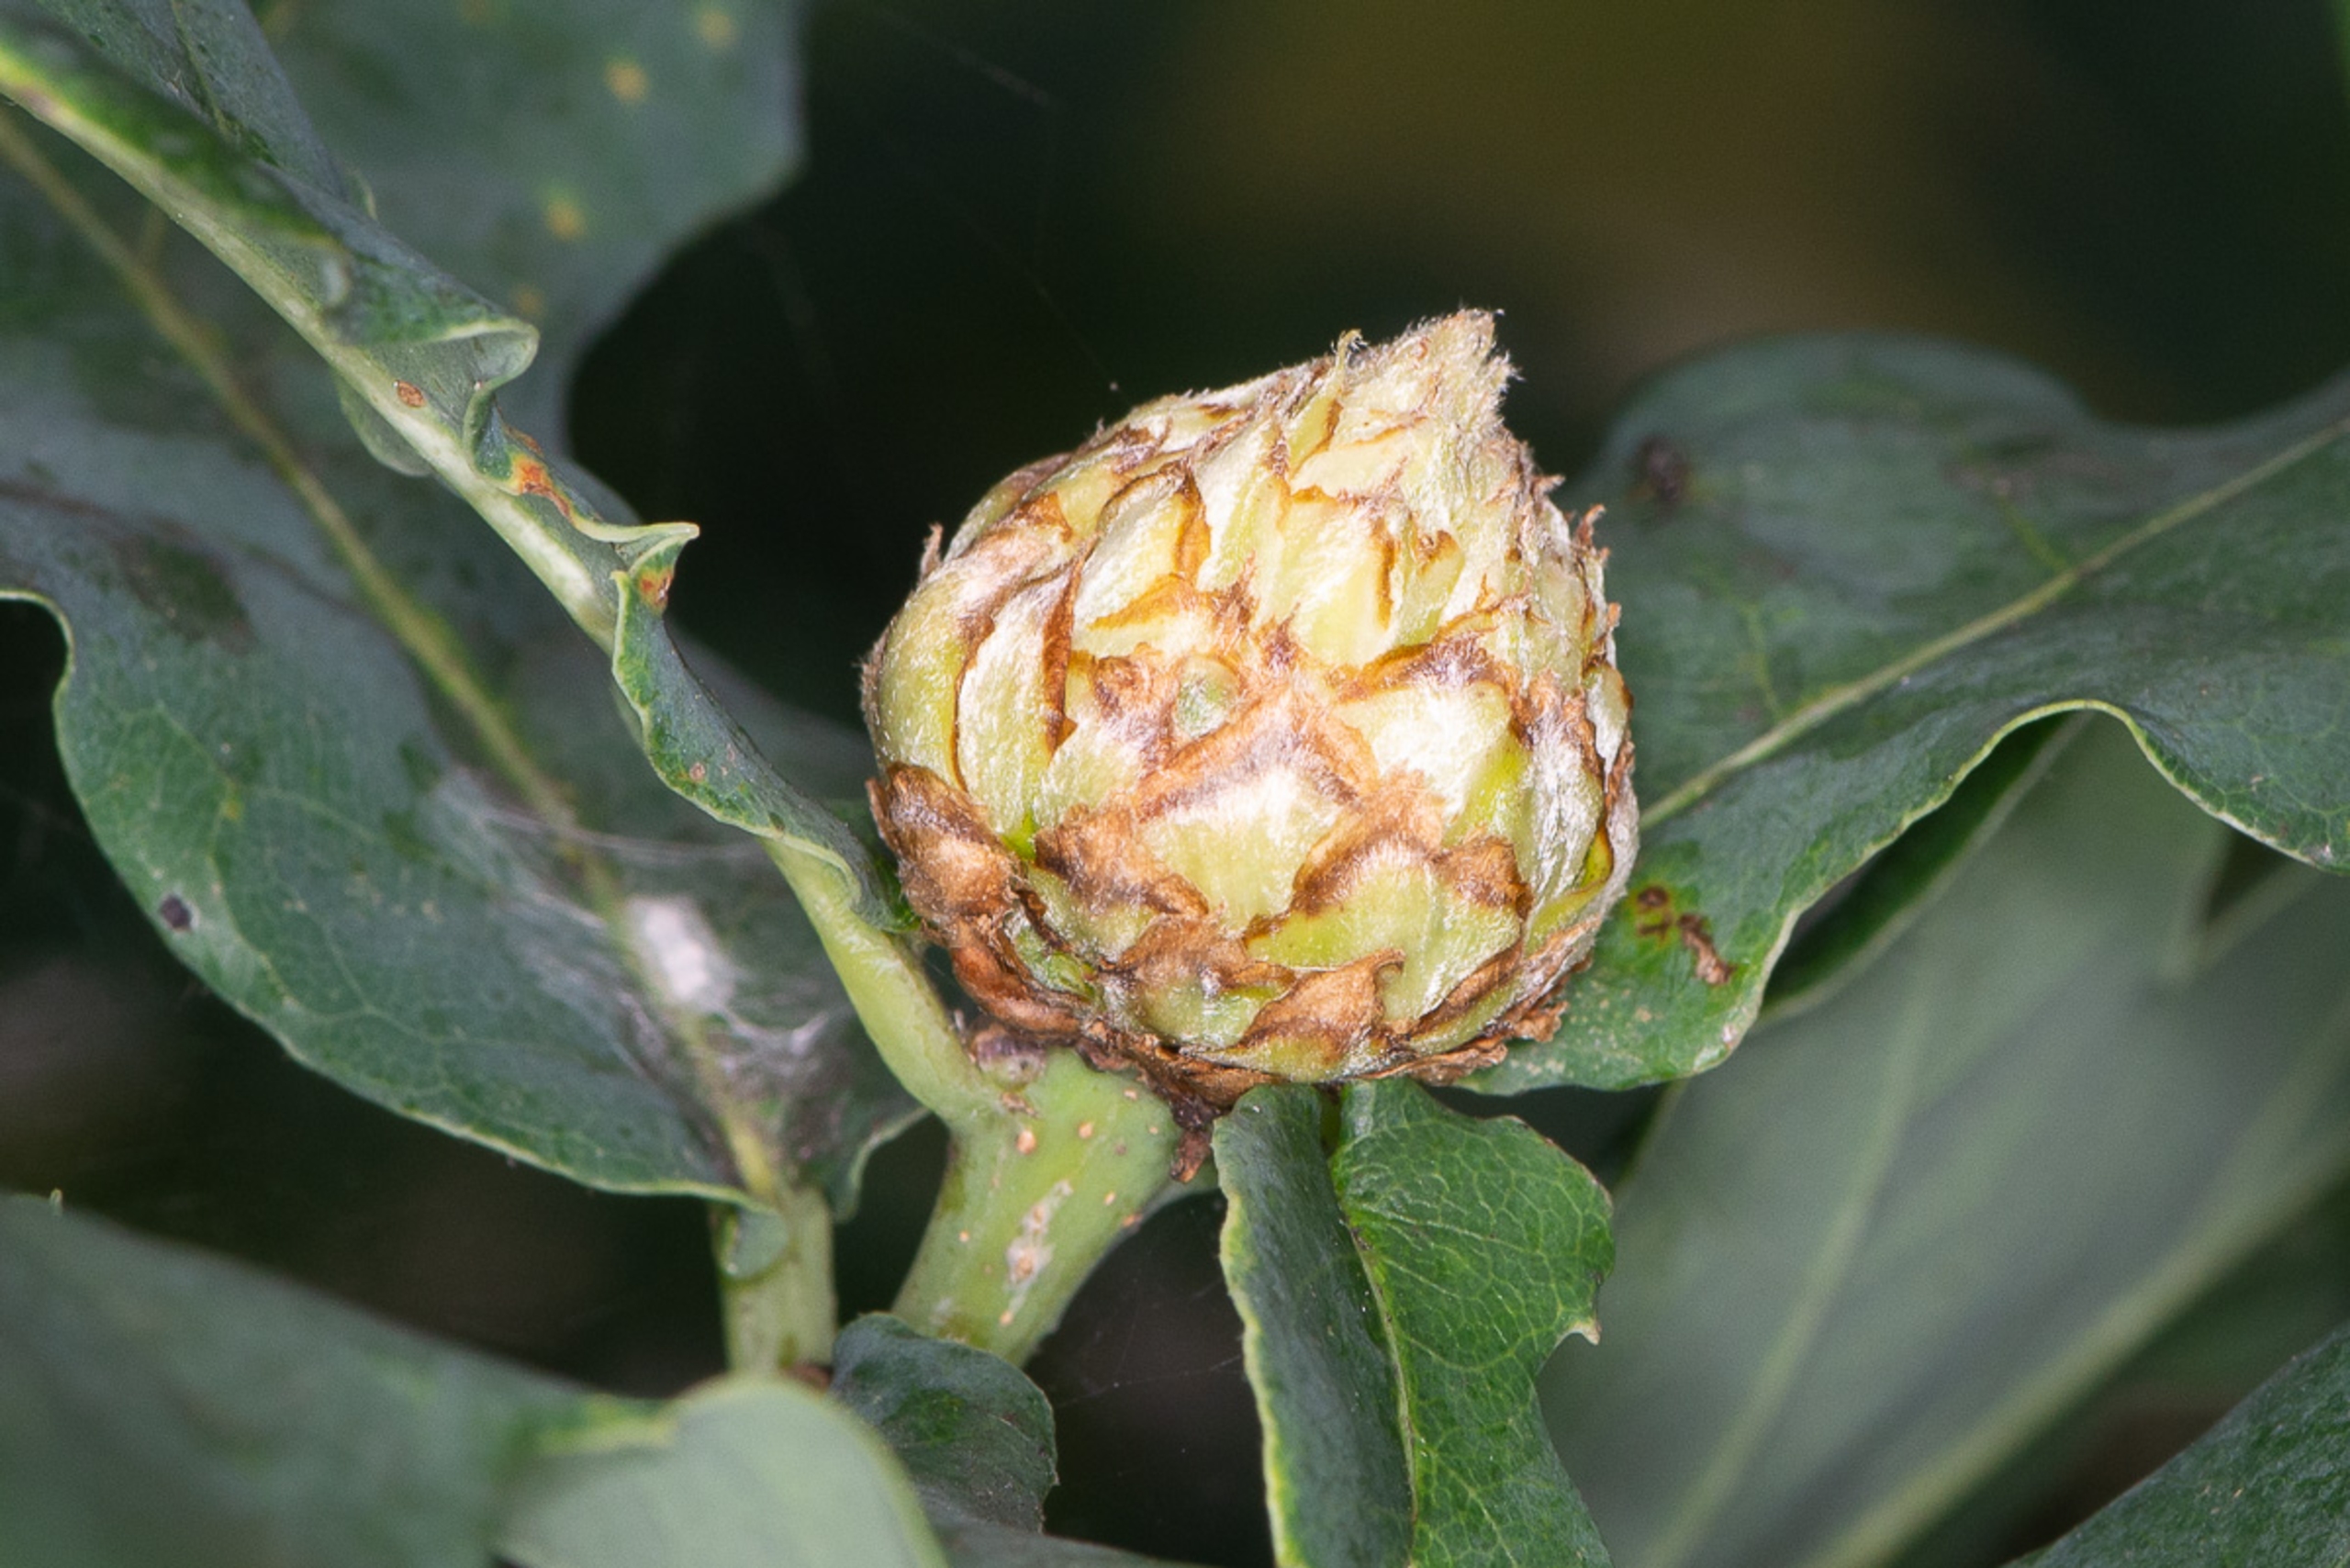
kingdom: Animalia
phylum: Arthropoda
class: Insecta
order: Hymenoptera
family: Cynipidae
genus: Andricus
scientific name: Andricus foecundatrix
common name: Artiskokgalhveps
